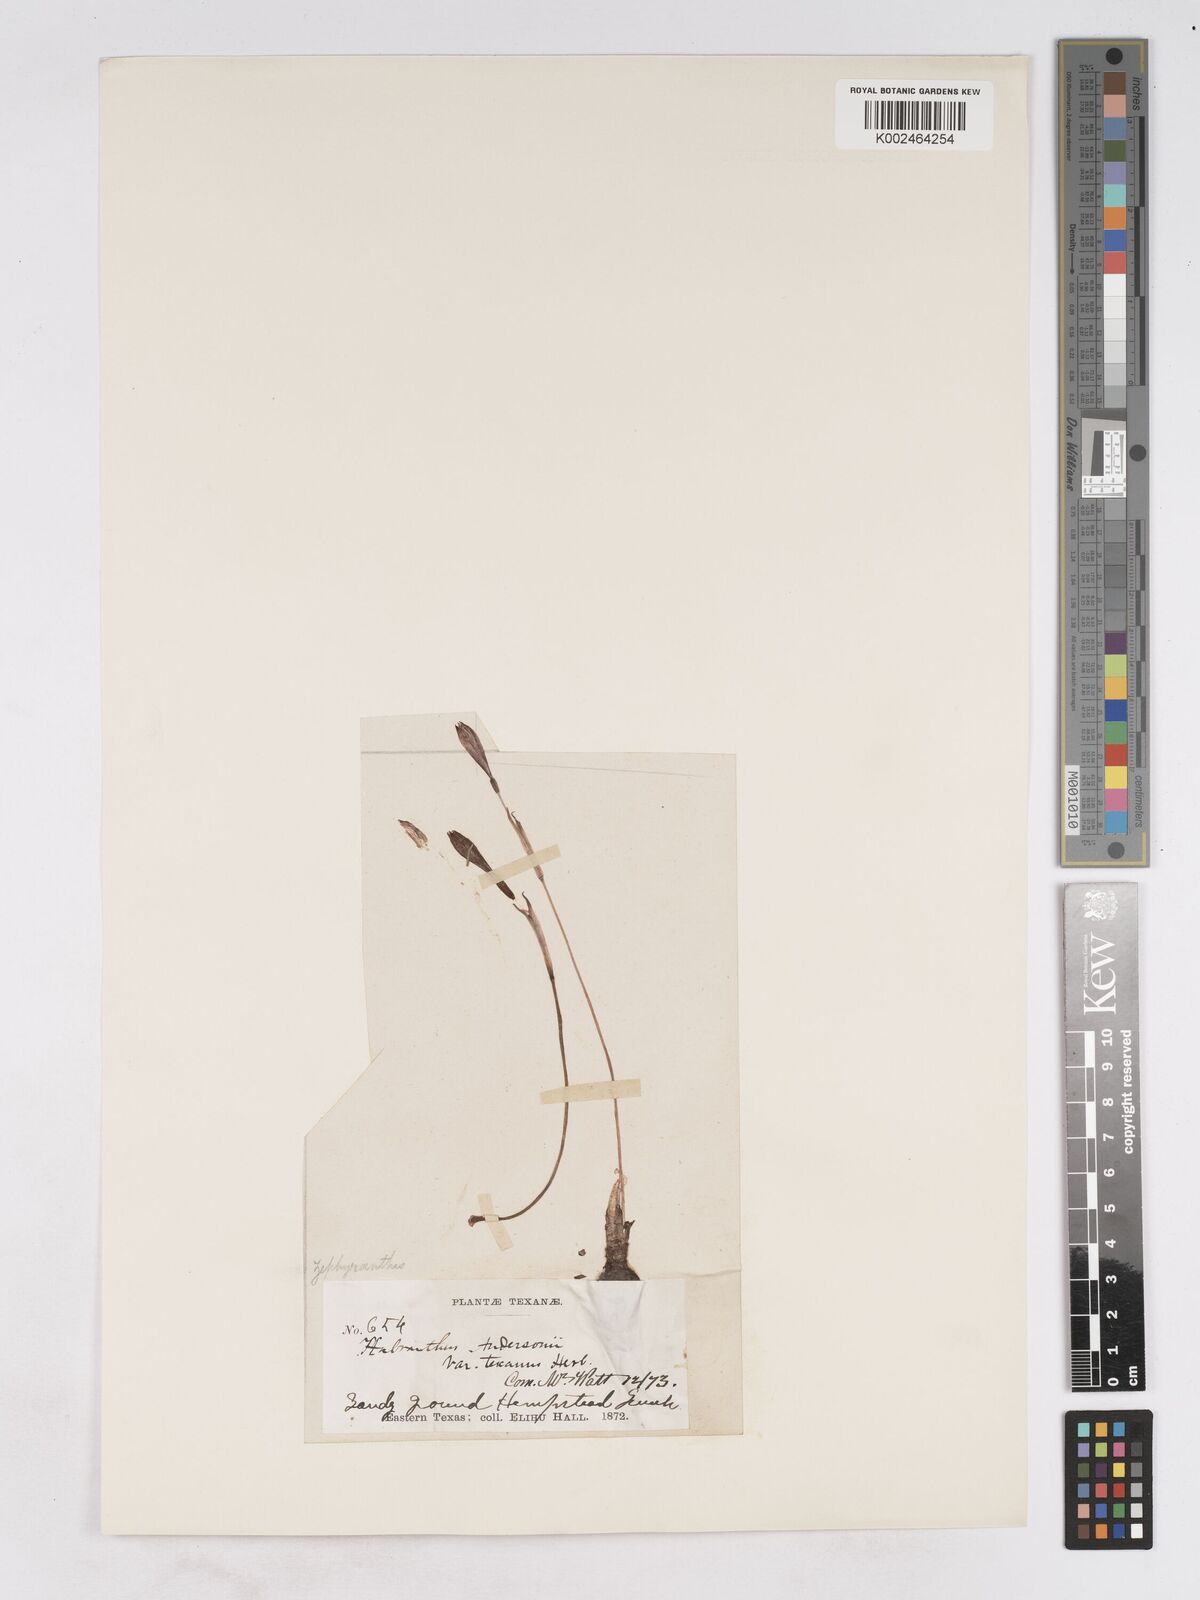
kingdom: Plantae
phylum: Tracheophyta
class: Liliopsida
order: Asparagales
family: Amaryllidaceae
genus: Zephyranthes
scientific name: Zephyranthes tubispatha
